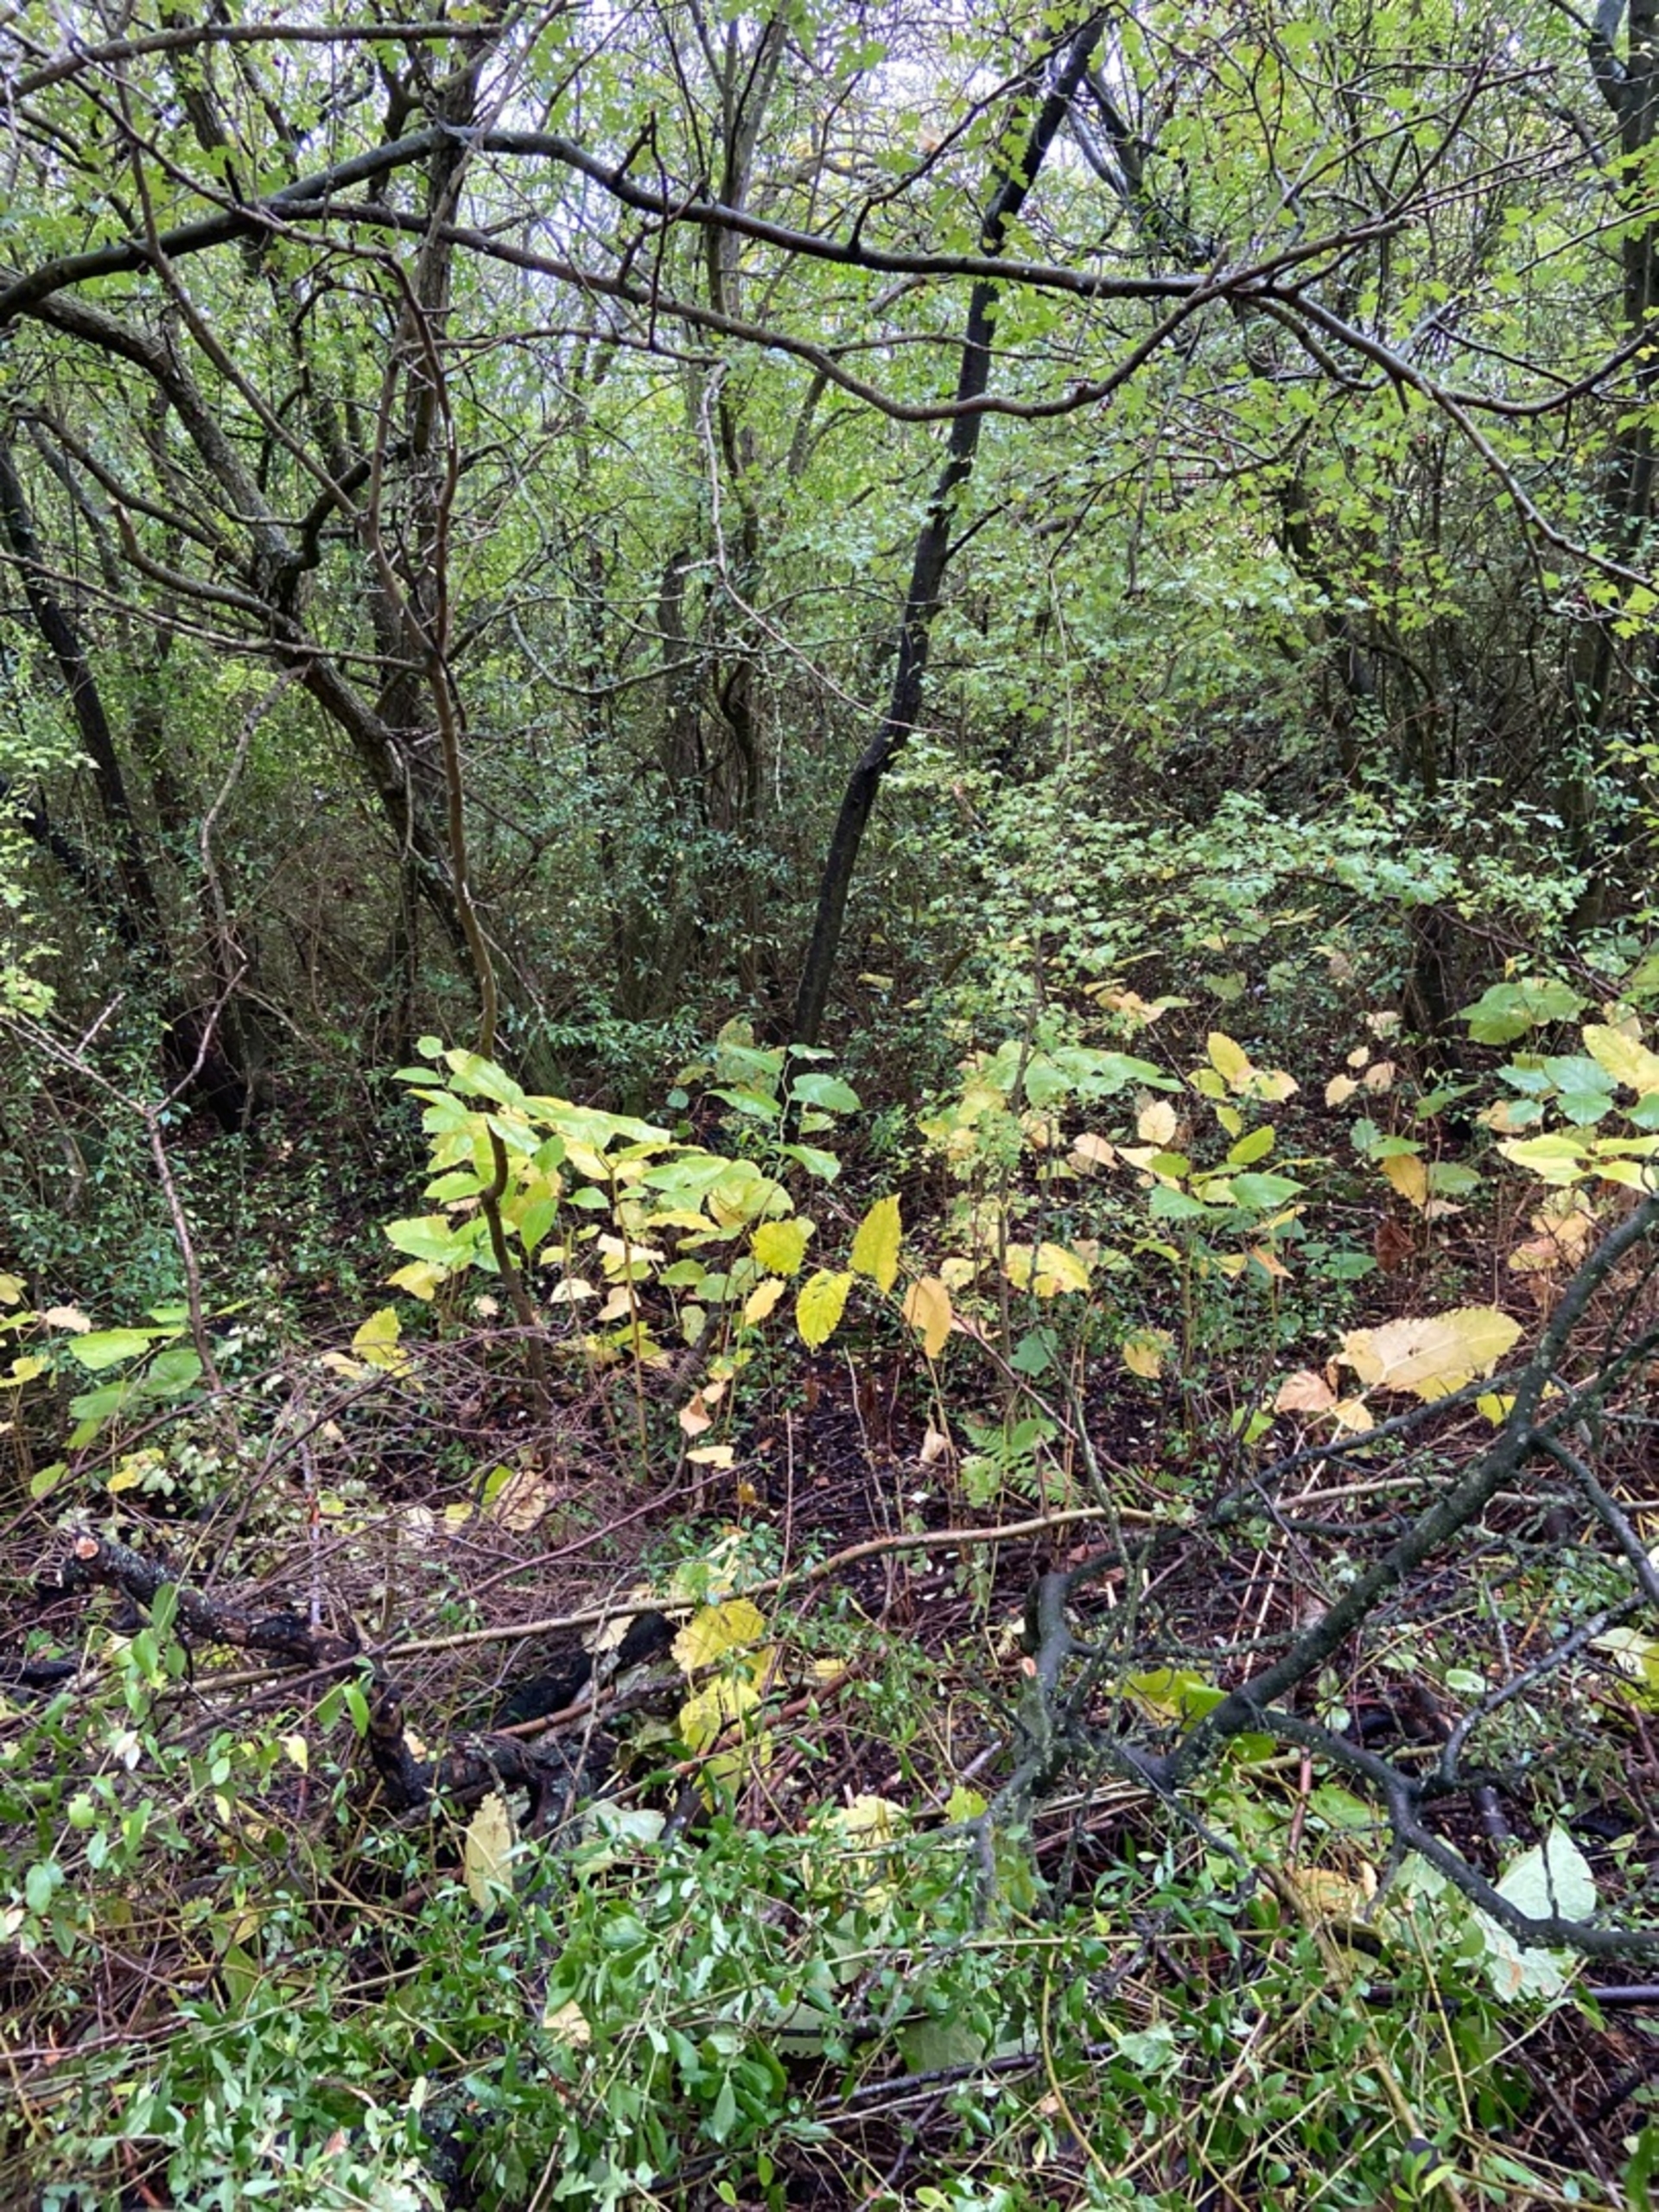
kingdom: Plantae
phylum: Tracheophyta
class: Magnoliopsida
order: Caryophyllales
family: Polygonaceae
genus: Reynoutria
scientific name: Reynoutria japonica
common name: Japan-pileurt
